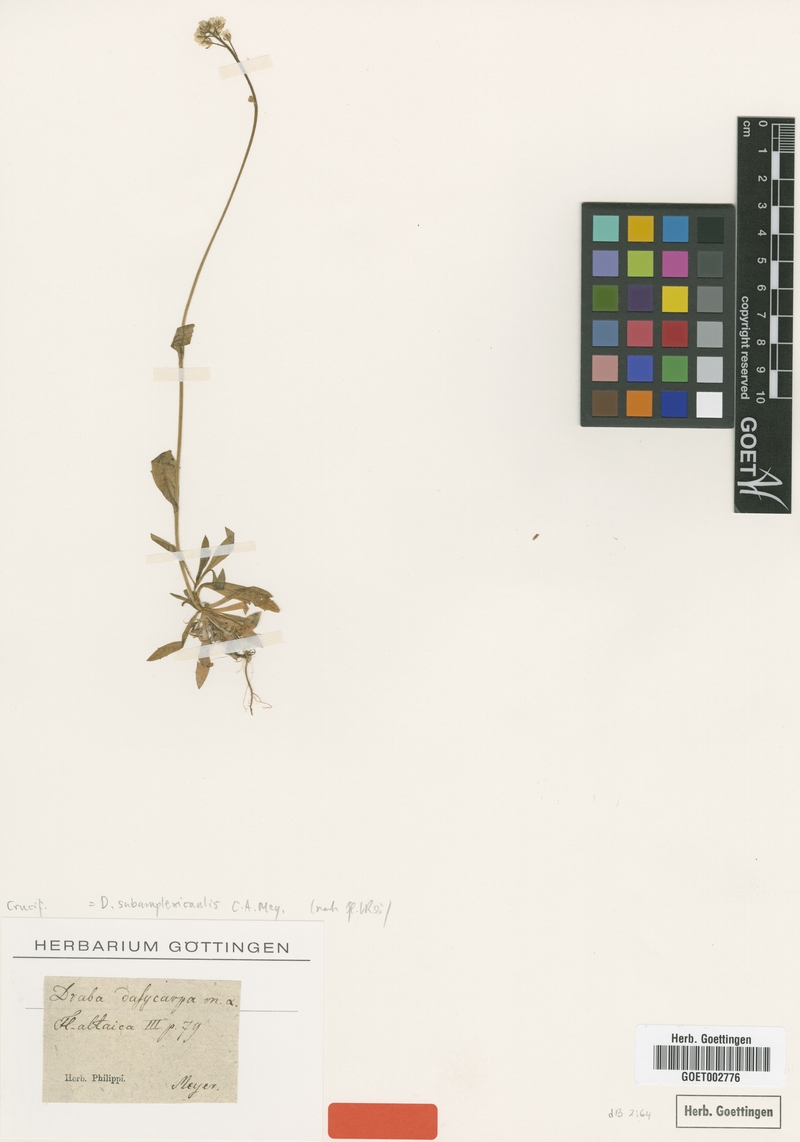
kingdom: Plantae
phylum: Tracheophyta
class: Magnoliopsida
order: Brassicales
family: Brassicaceae
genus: Draba
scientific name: Draba subamplexicaulis
